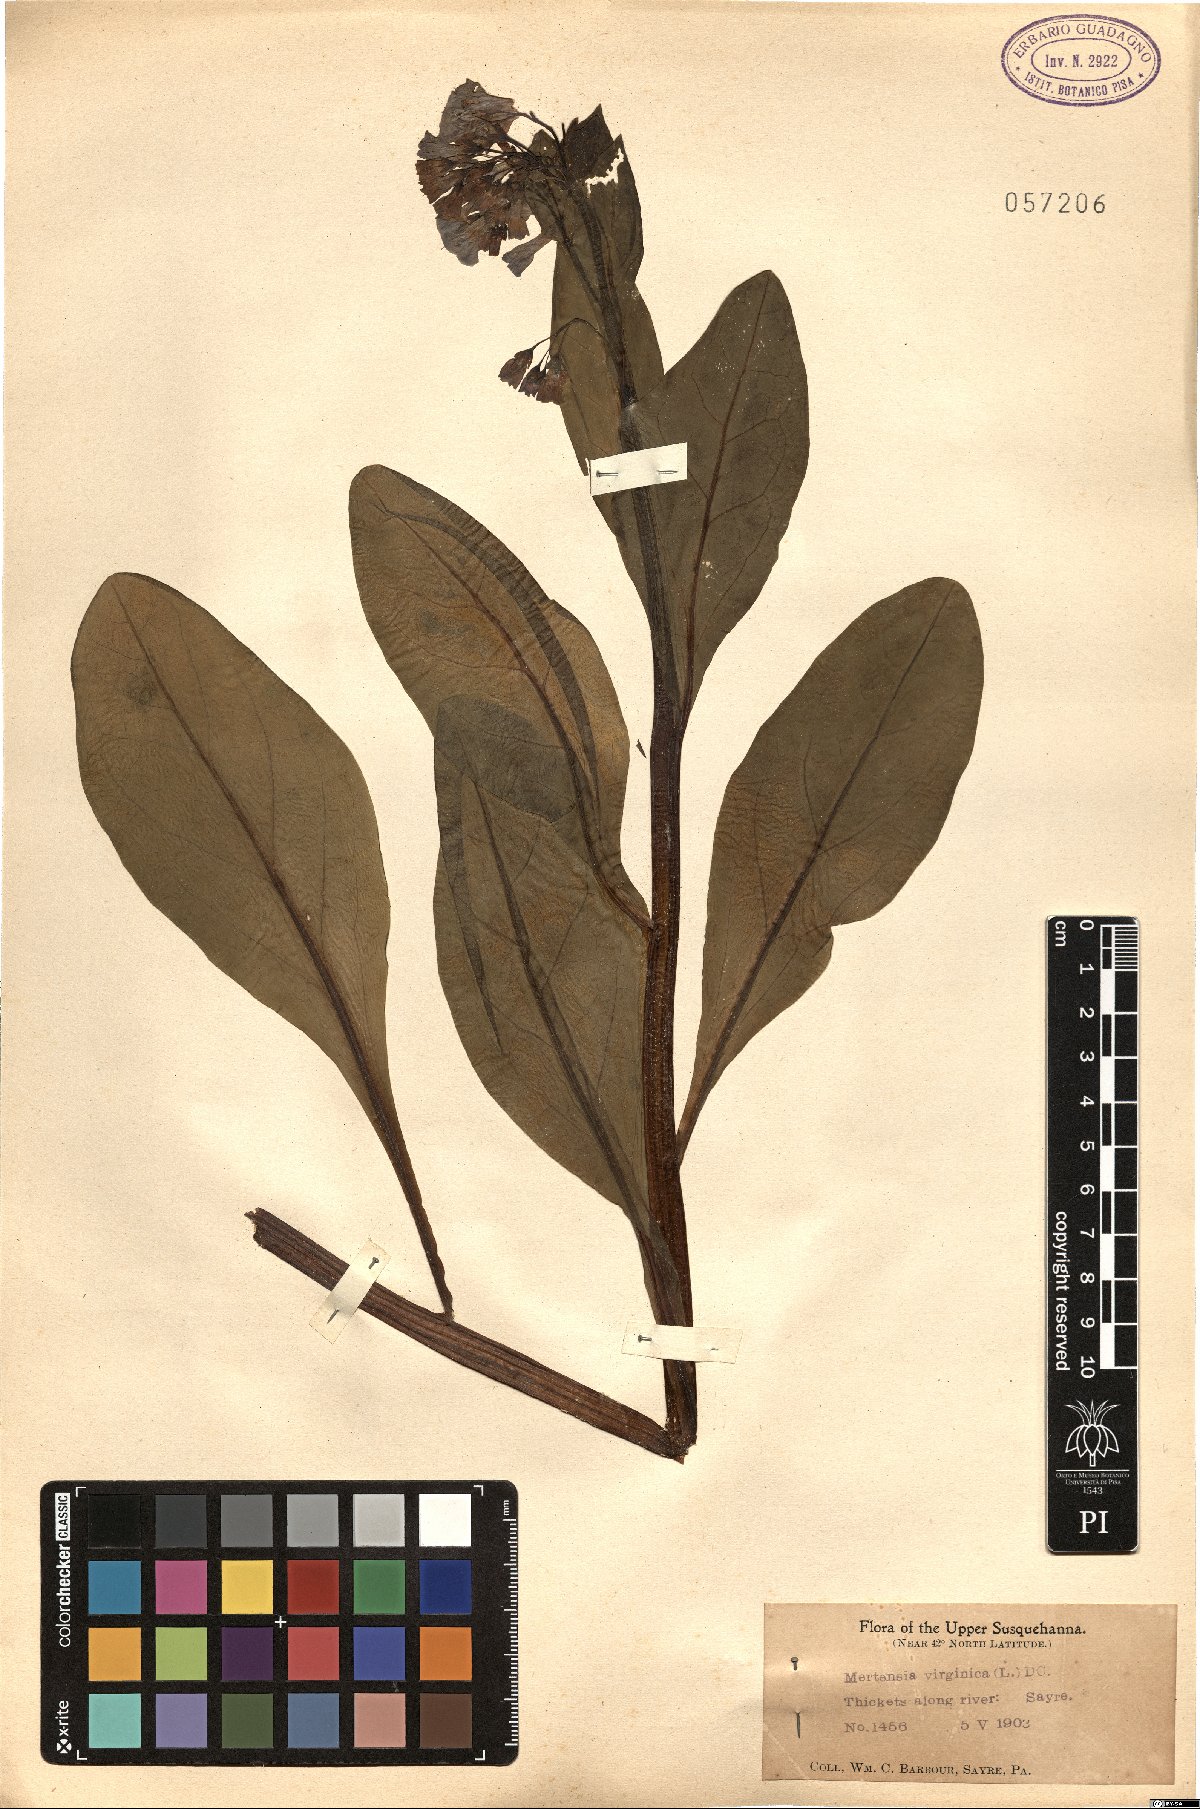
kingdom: Plantae
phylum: Tracheophyta
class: Magnoliopsida
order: Boraginales
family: Boraginaceae
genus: Mertensia
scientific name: Mertensia virginica
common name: Virginia bluebells
